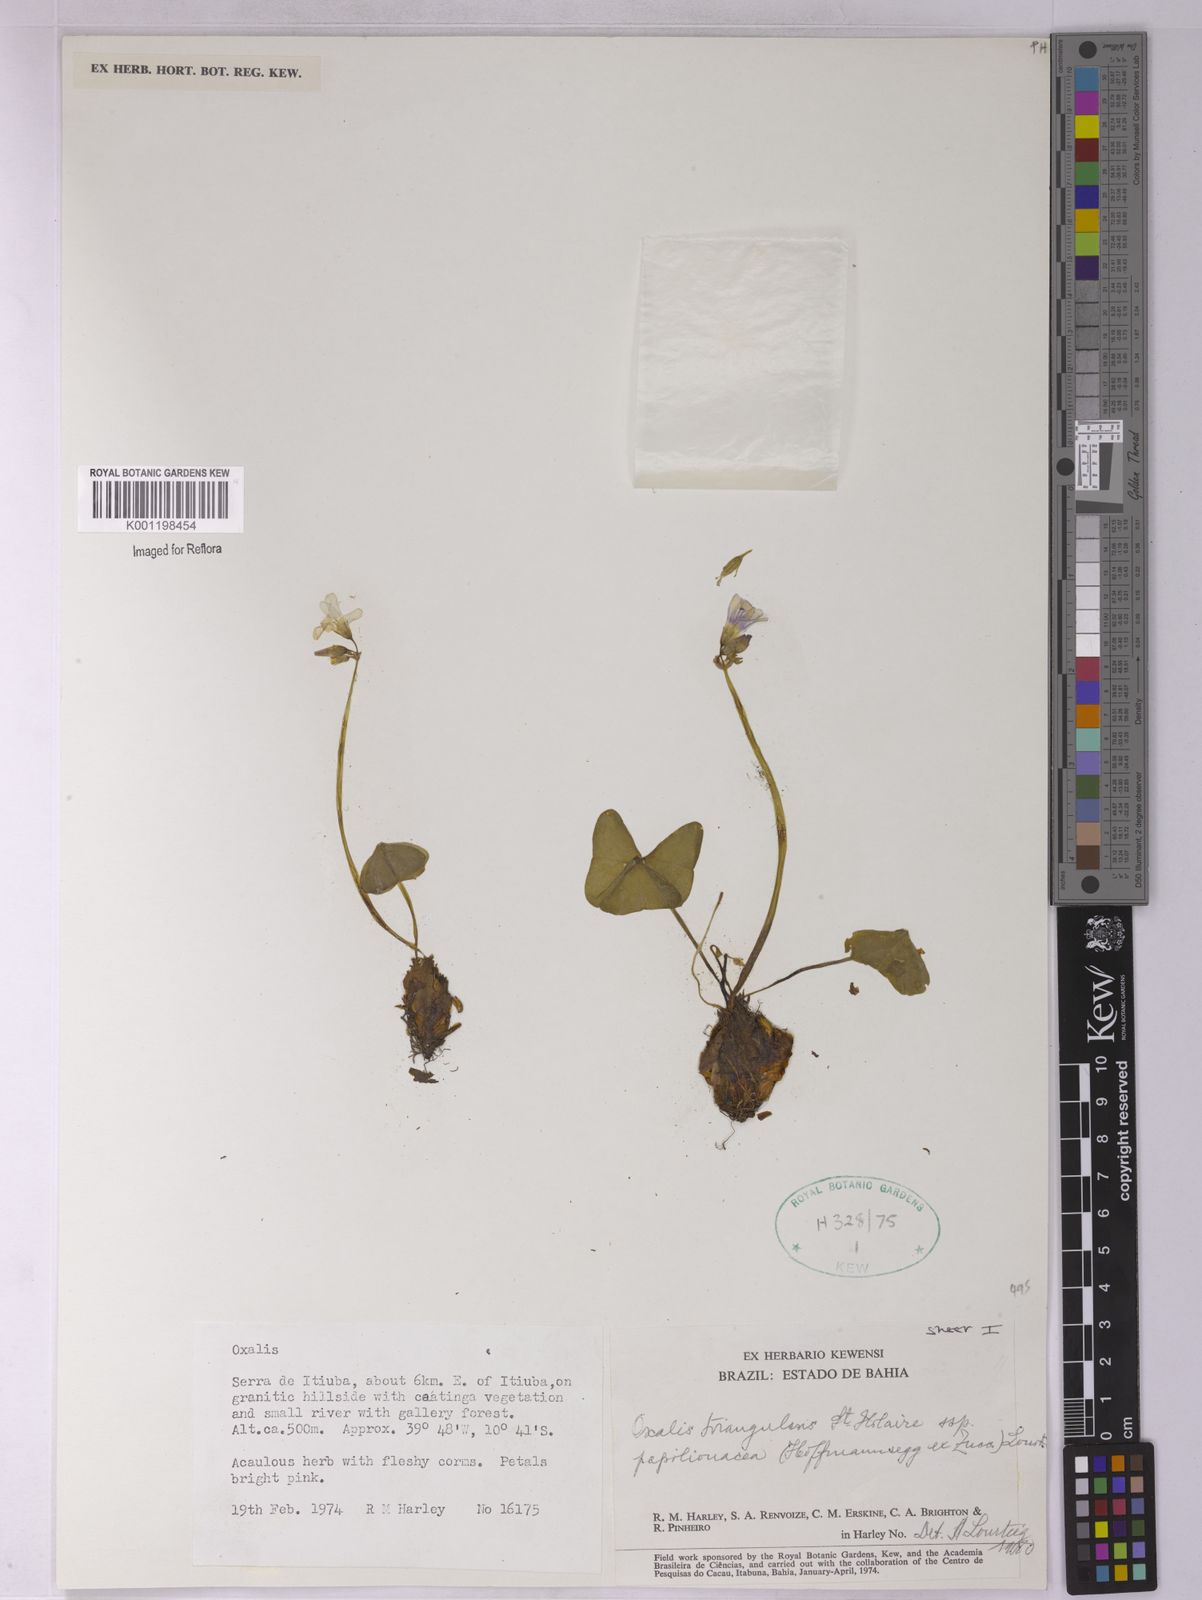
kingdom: Plantae
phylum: Tracheophyta
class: Magnoliopsida
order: Oxalidales
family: Oxalidaceae
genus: Oxalis
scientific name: Oxalis triangularis
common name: Wood sorrel
